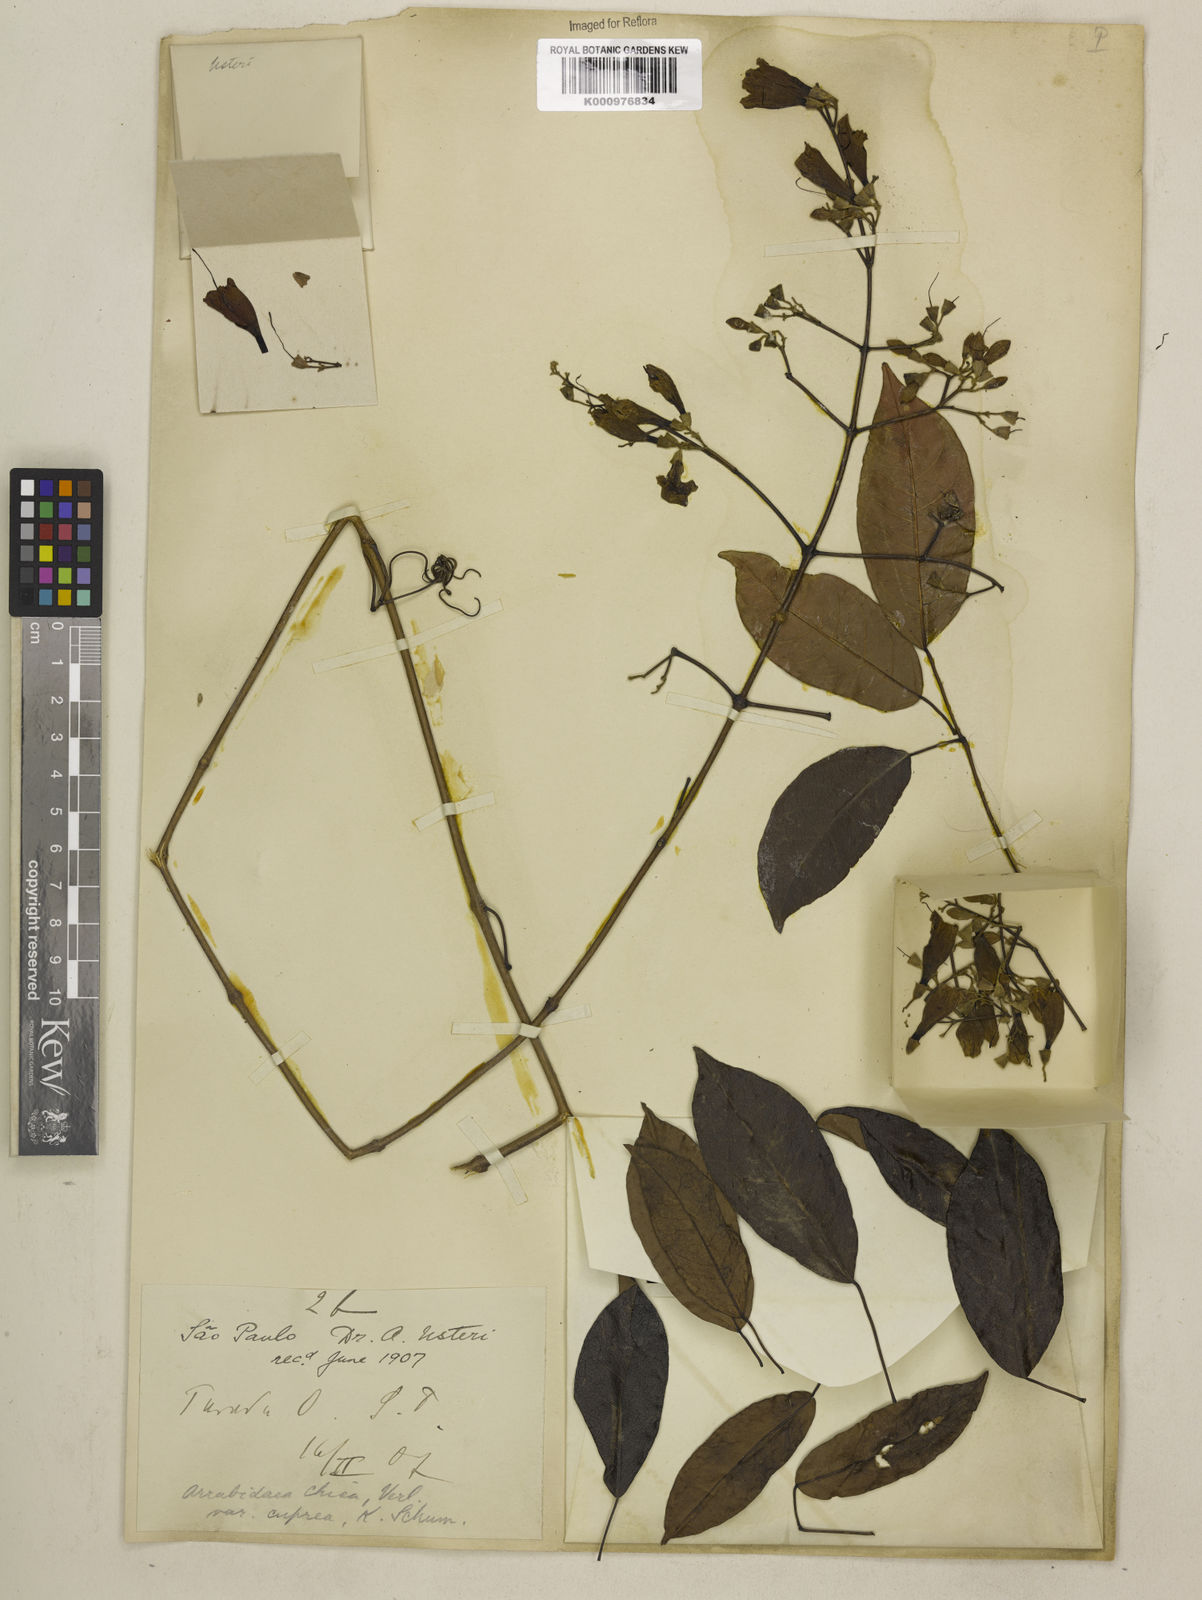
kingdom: Plantae
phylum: Tracheophyta
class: Magnoliopsida
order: Lamiales
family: Bignoniaceae
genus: Fridericia
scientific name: Fridericia chica
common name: Cricketvine
